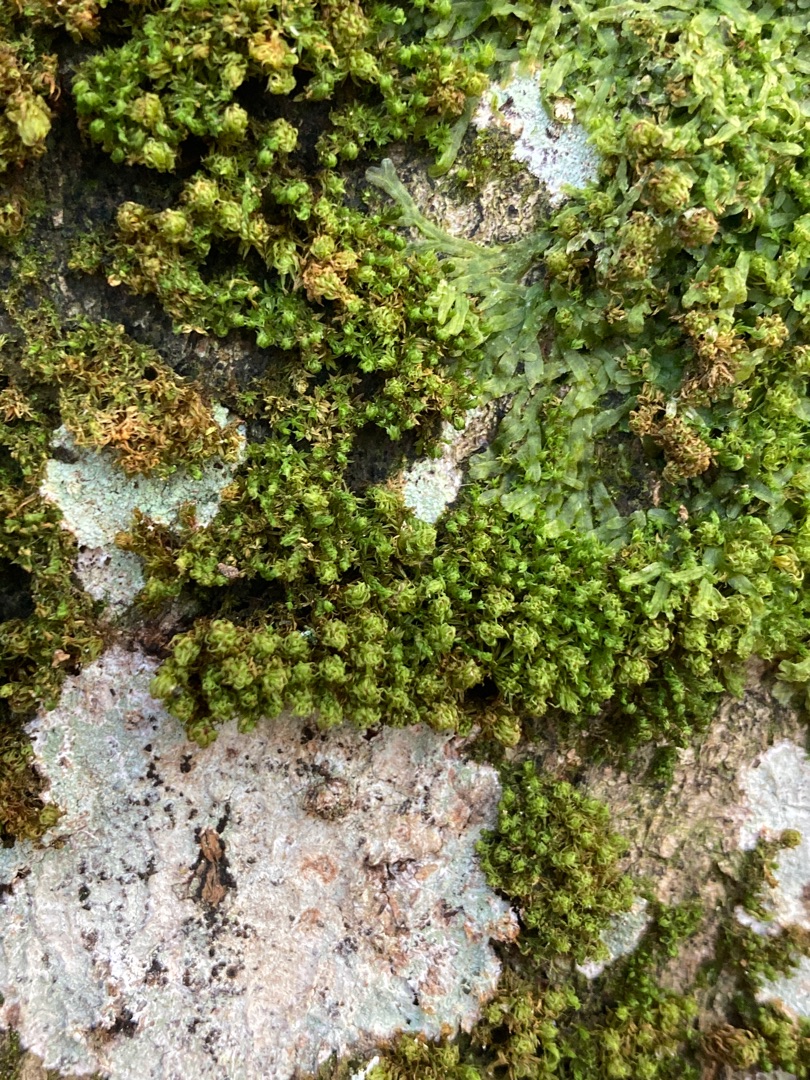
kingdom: Plantae
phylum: Bryophyta
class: Bryopsida
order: Orthotrichales
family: Orthotrichaceae
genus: Plenogemma
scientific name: Plenogemma phyllantha
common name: Stor låddenhætte
